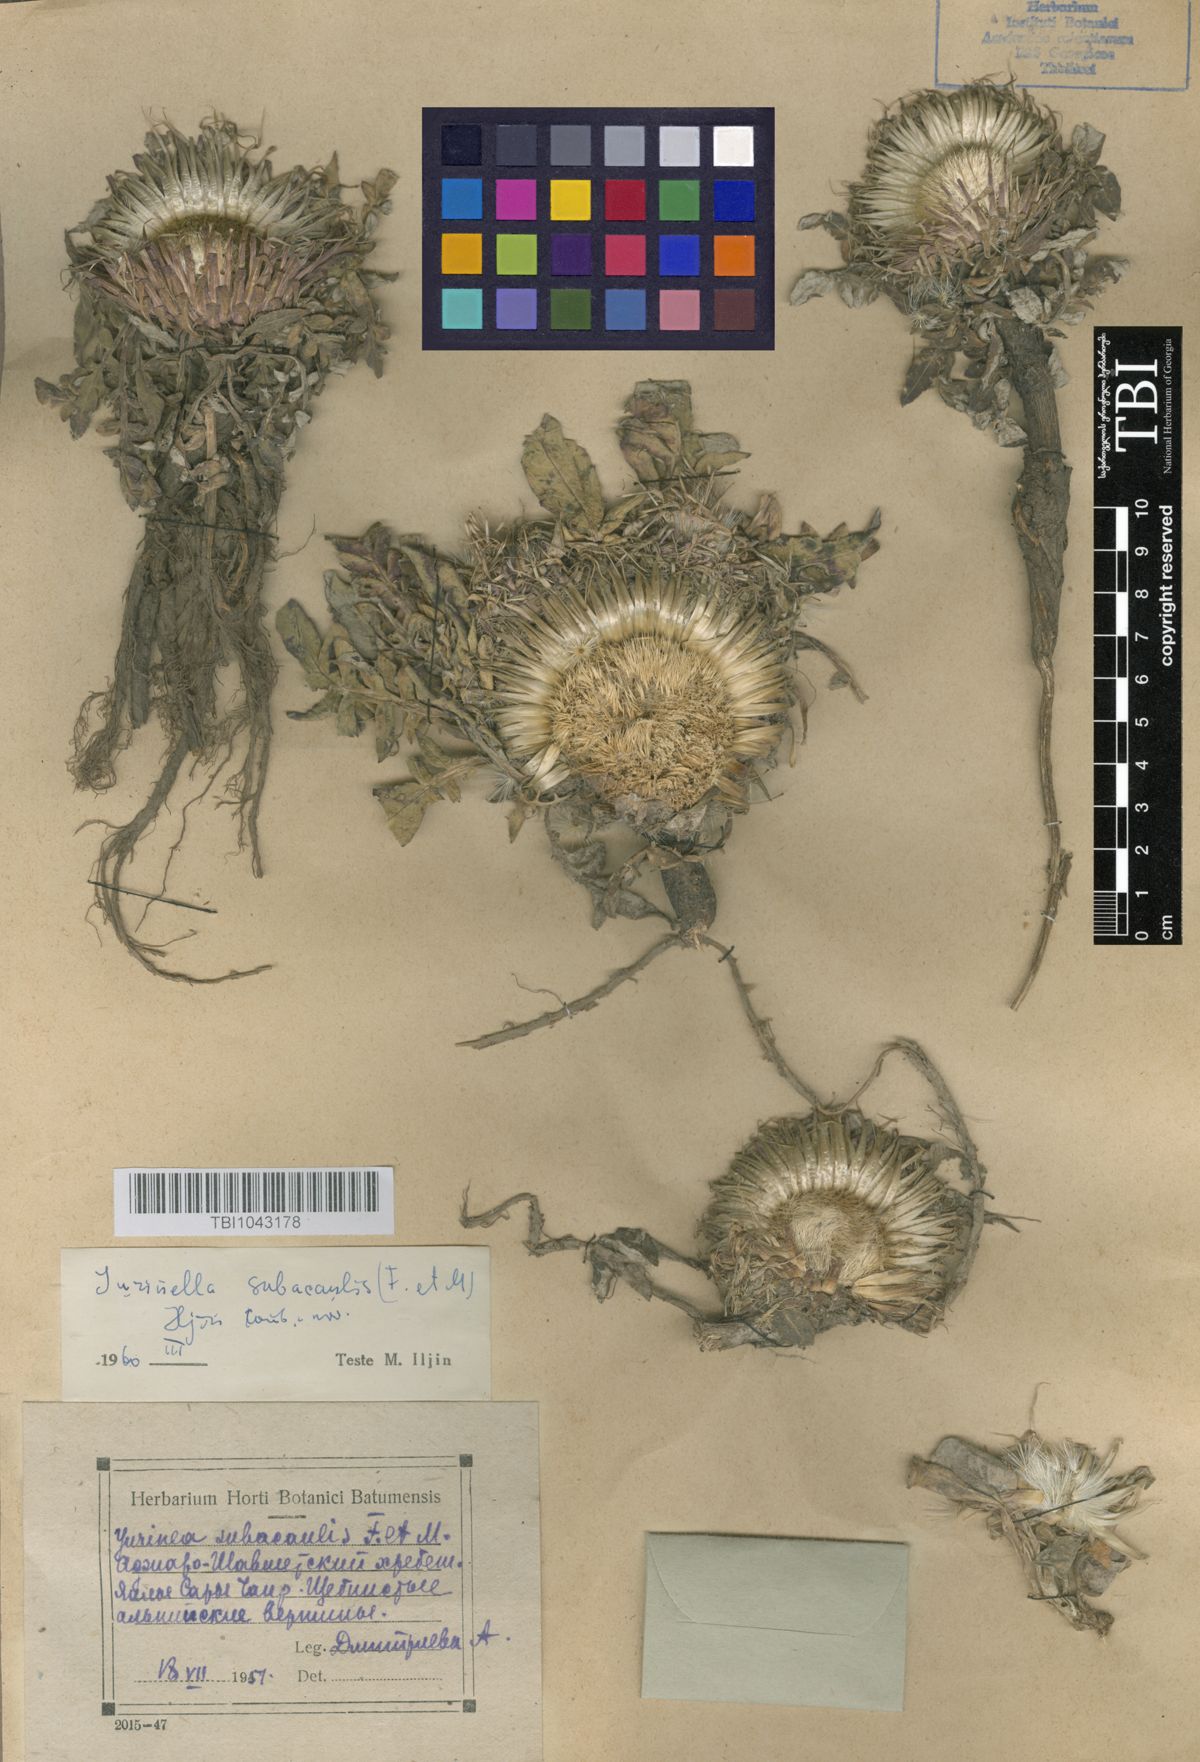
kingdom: Plantae
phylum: Tracheophyta
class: Magnoliopsida
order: Asterales
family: Asteraceae
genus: Jurinea
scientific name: Jurinea moschus
